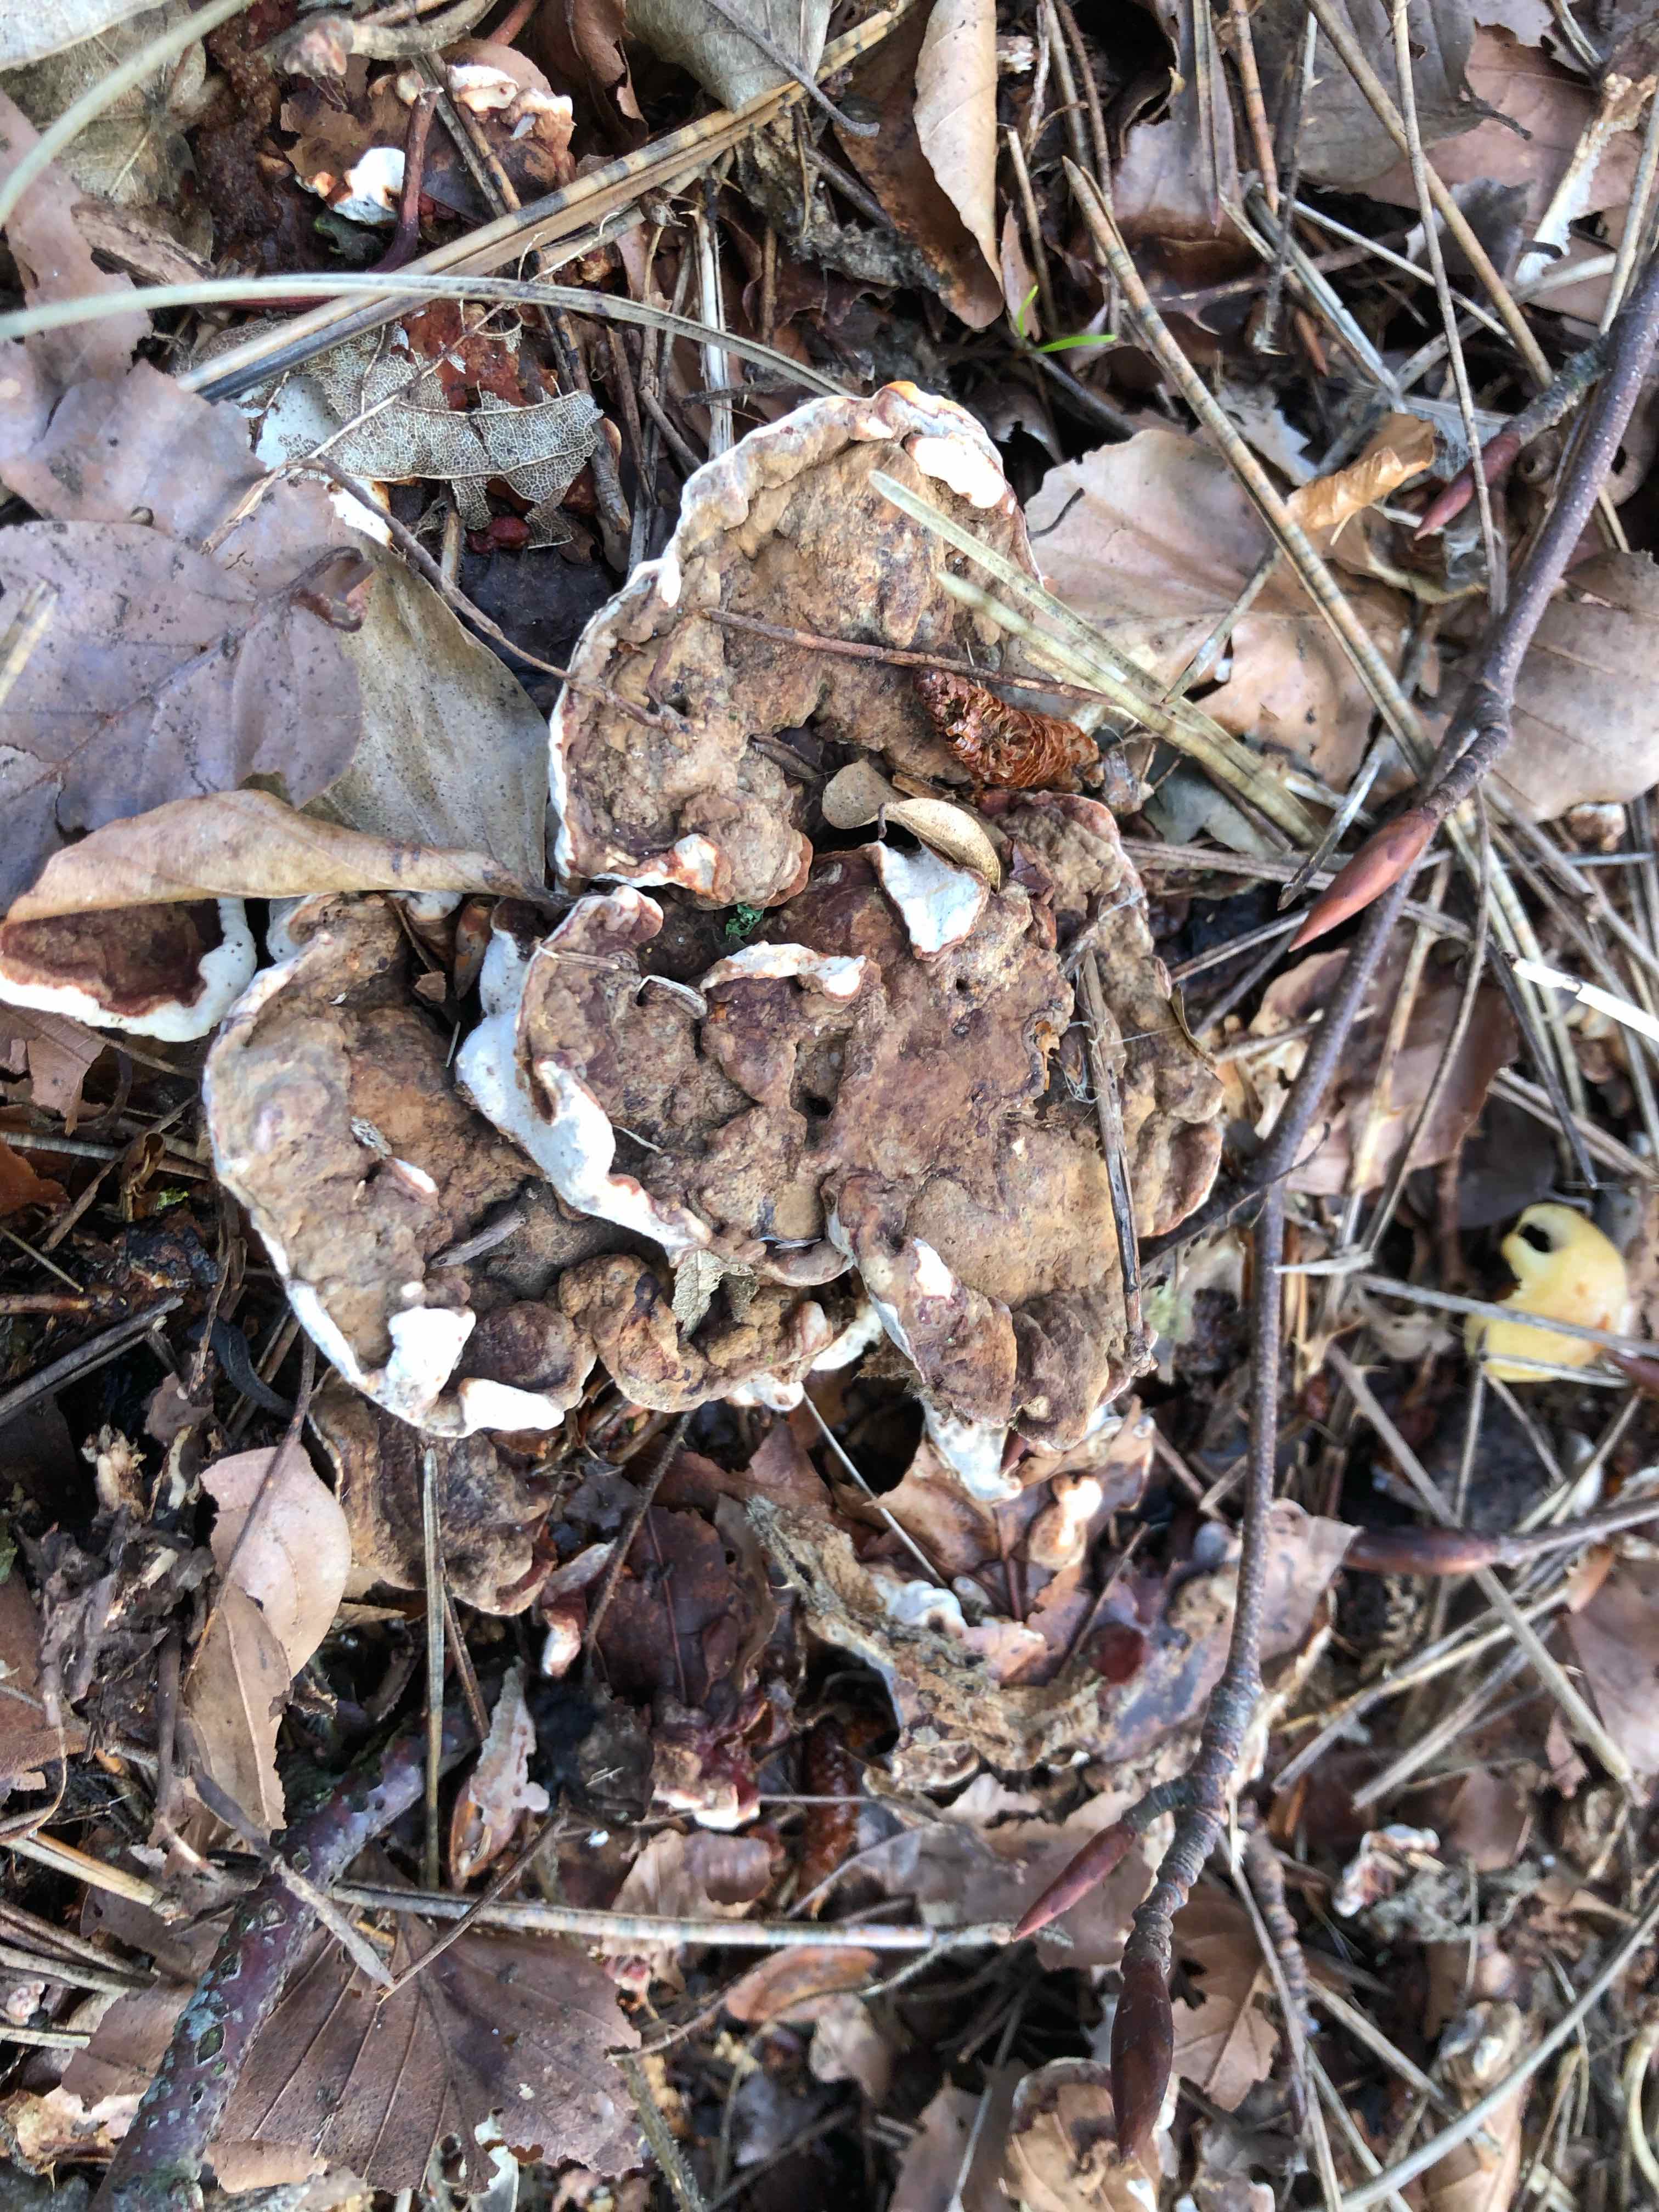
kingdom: Fungi
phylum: Basidiomycota
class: Agaricomycetes
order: Russulales
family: Bondarzewiaceae
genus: Heterobasidion
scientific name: Heterobasidion annosum
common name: almindelig rodfordærver
